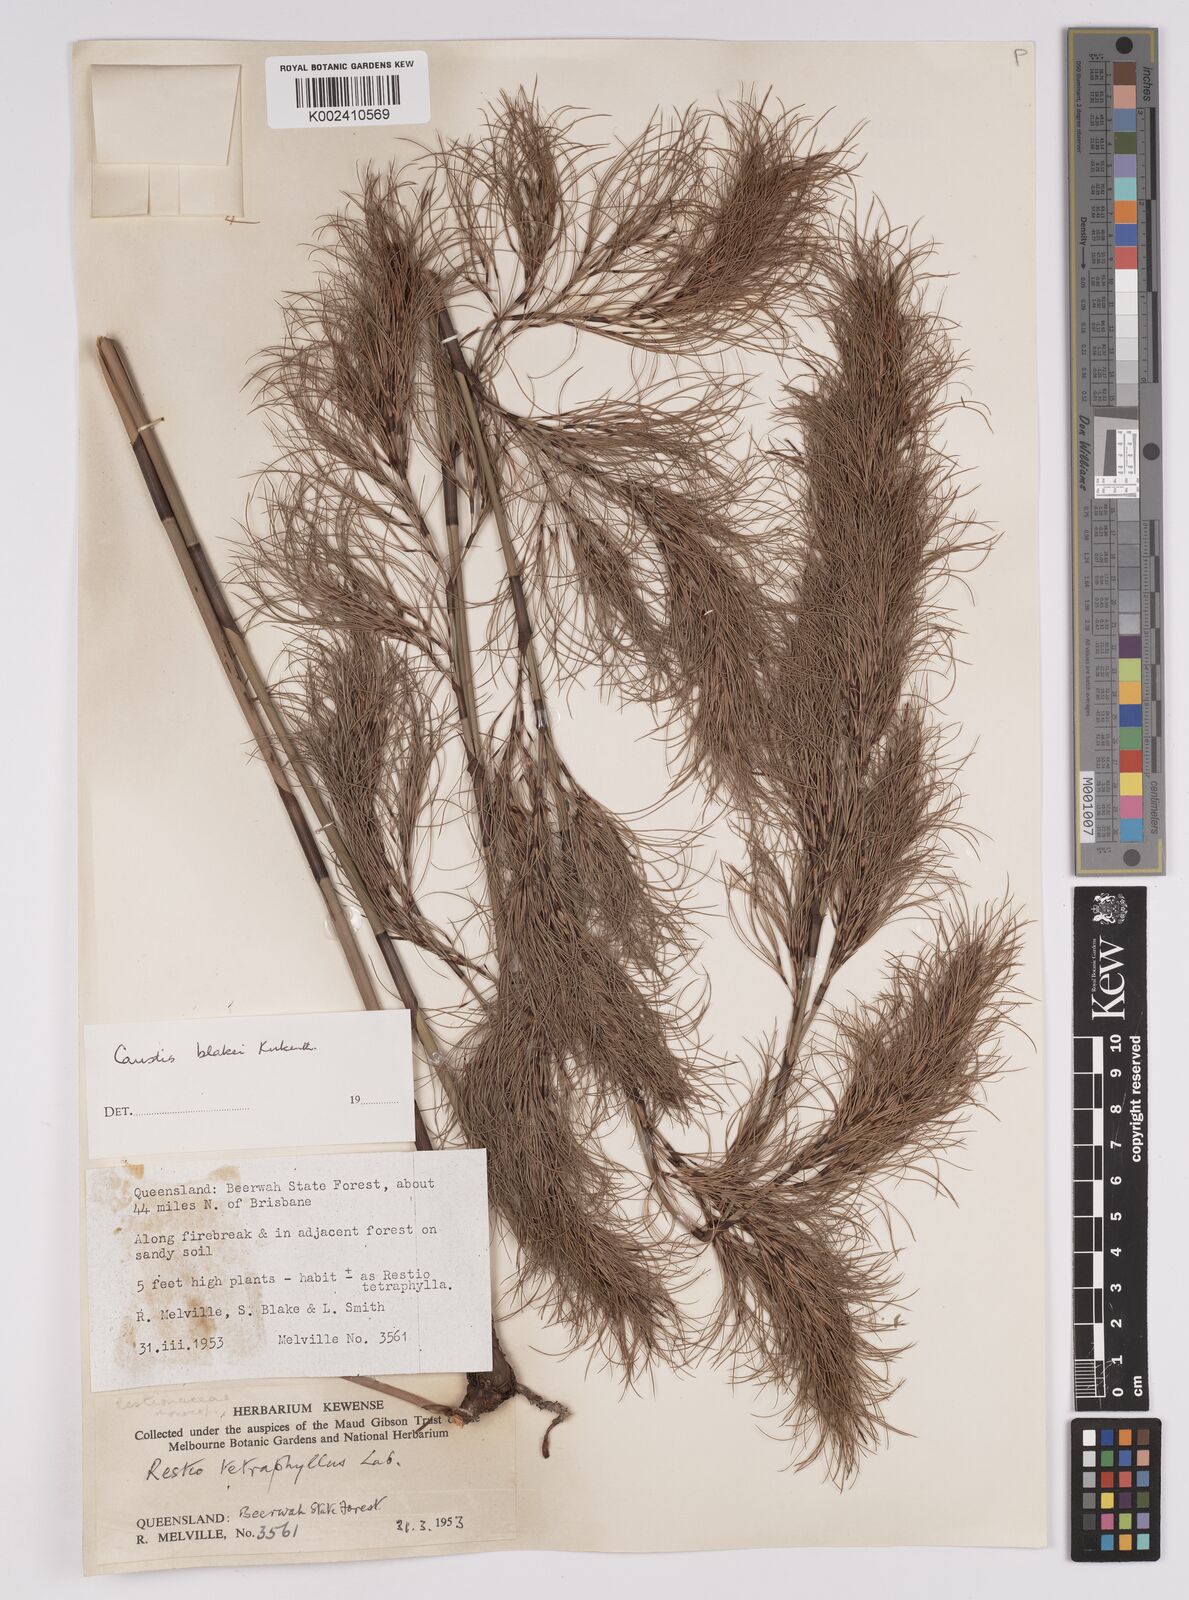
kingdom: Plantae
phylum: Tracheophyta
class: Liliopsida
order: Poales
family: Cyperaceae
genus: Caustis
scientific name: Caustis blakei
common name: Foxtail-fern
